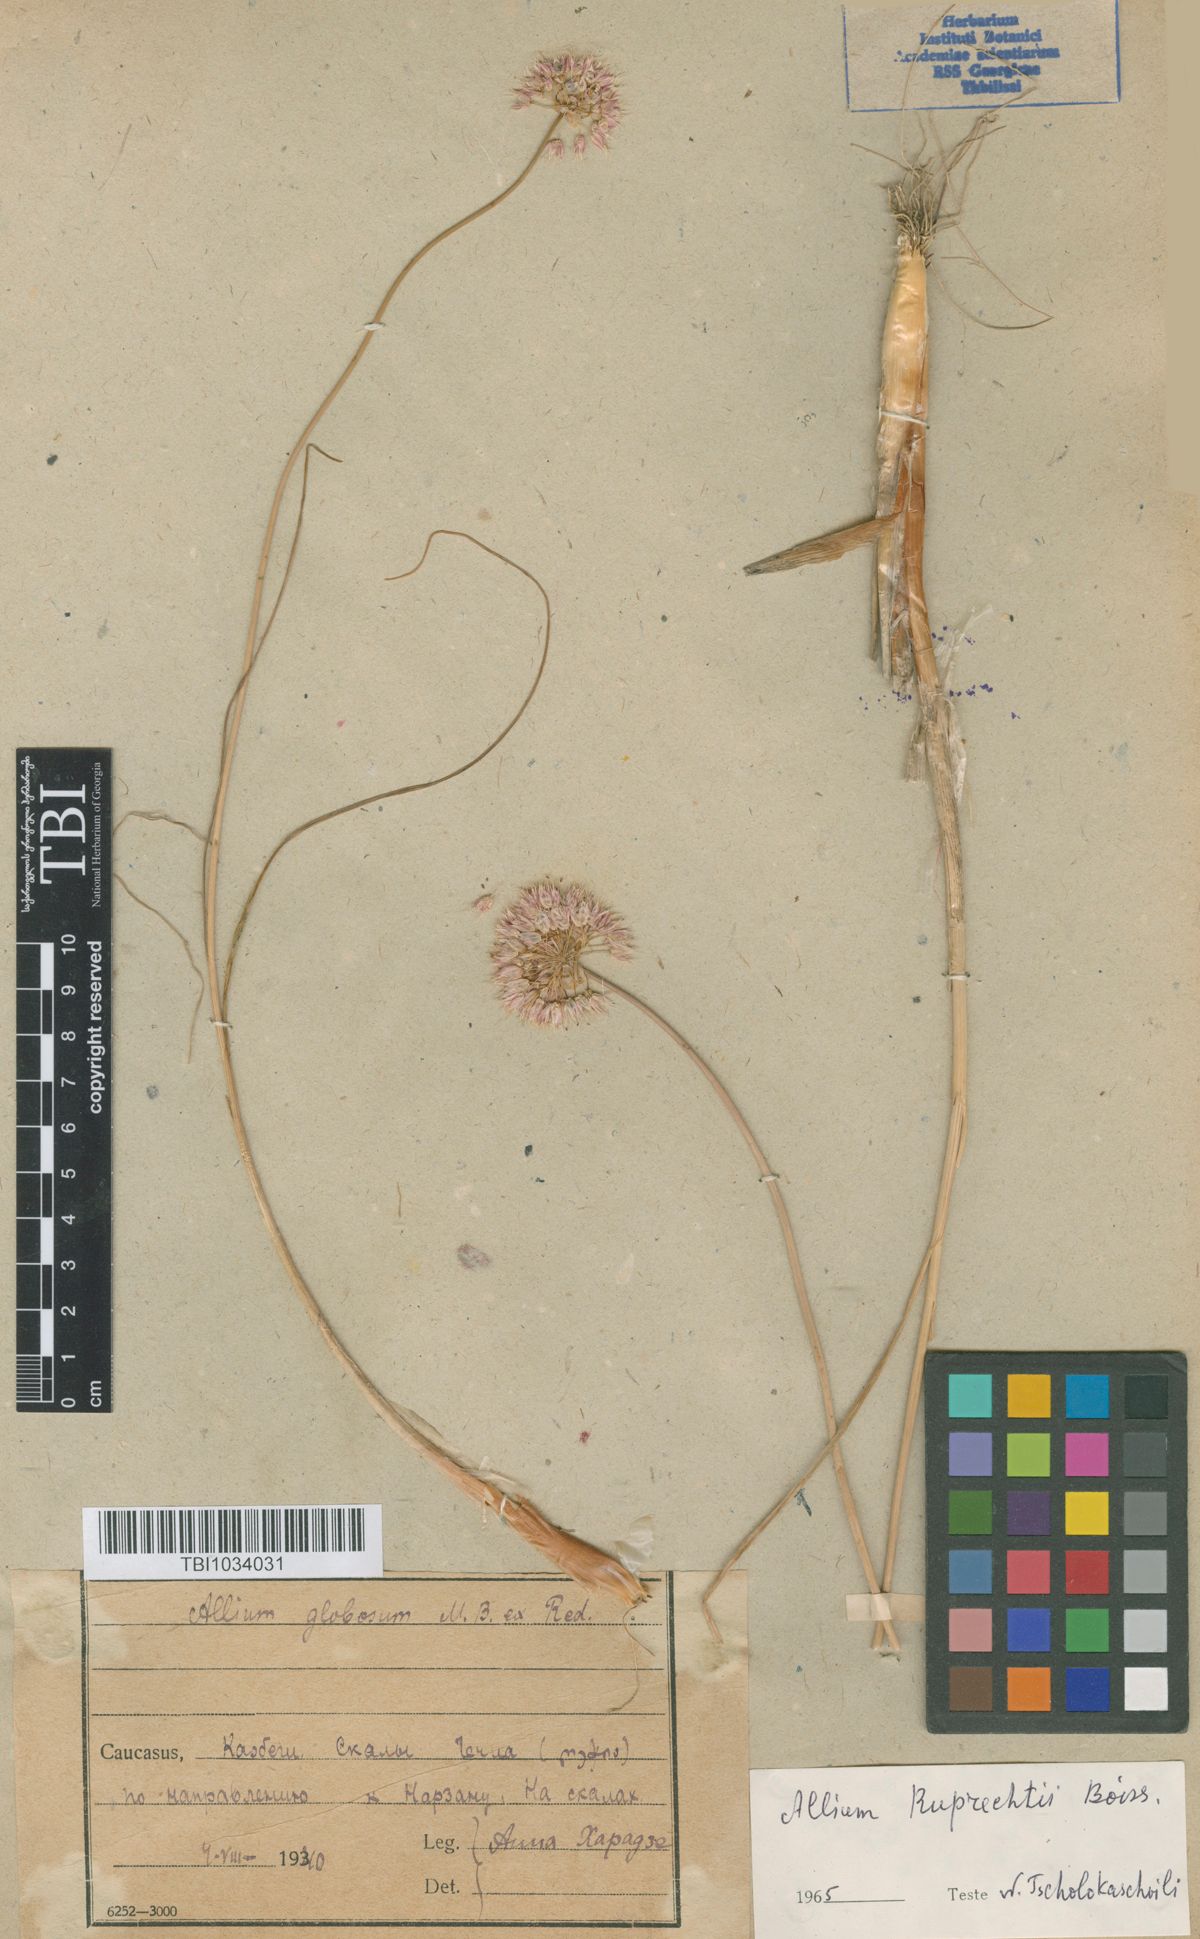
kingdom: Plantae
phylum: Tracheophyta
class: Liliopsida
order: Asparagales
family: Amaryllidaceae
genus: Allium
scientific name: Allium saxatile
